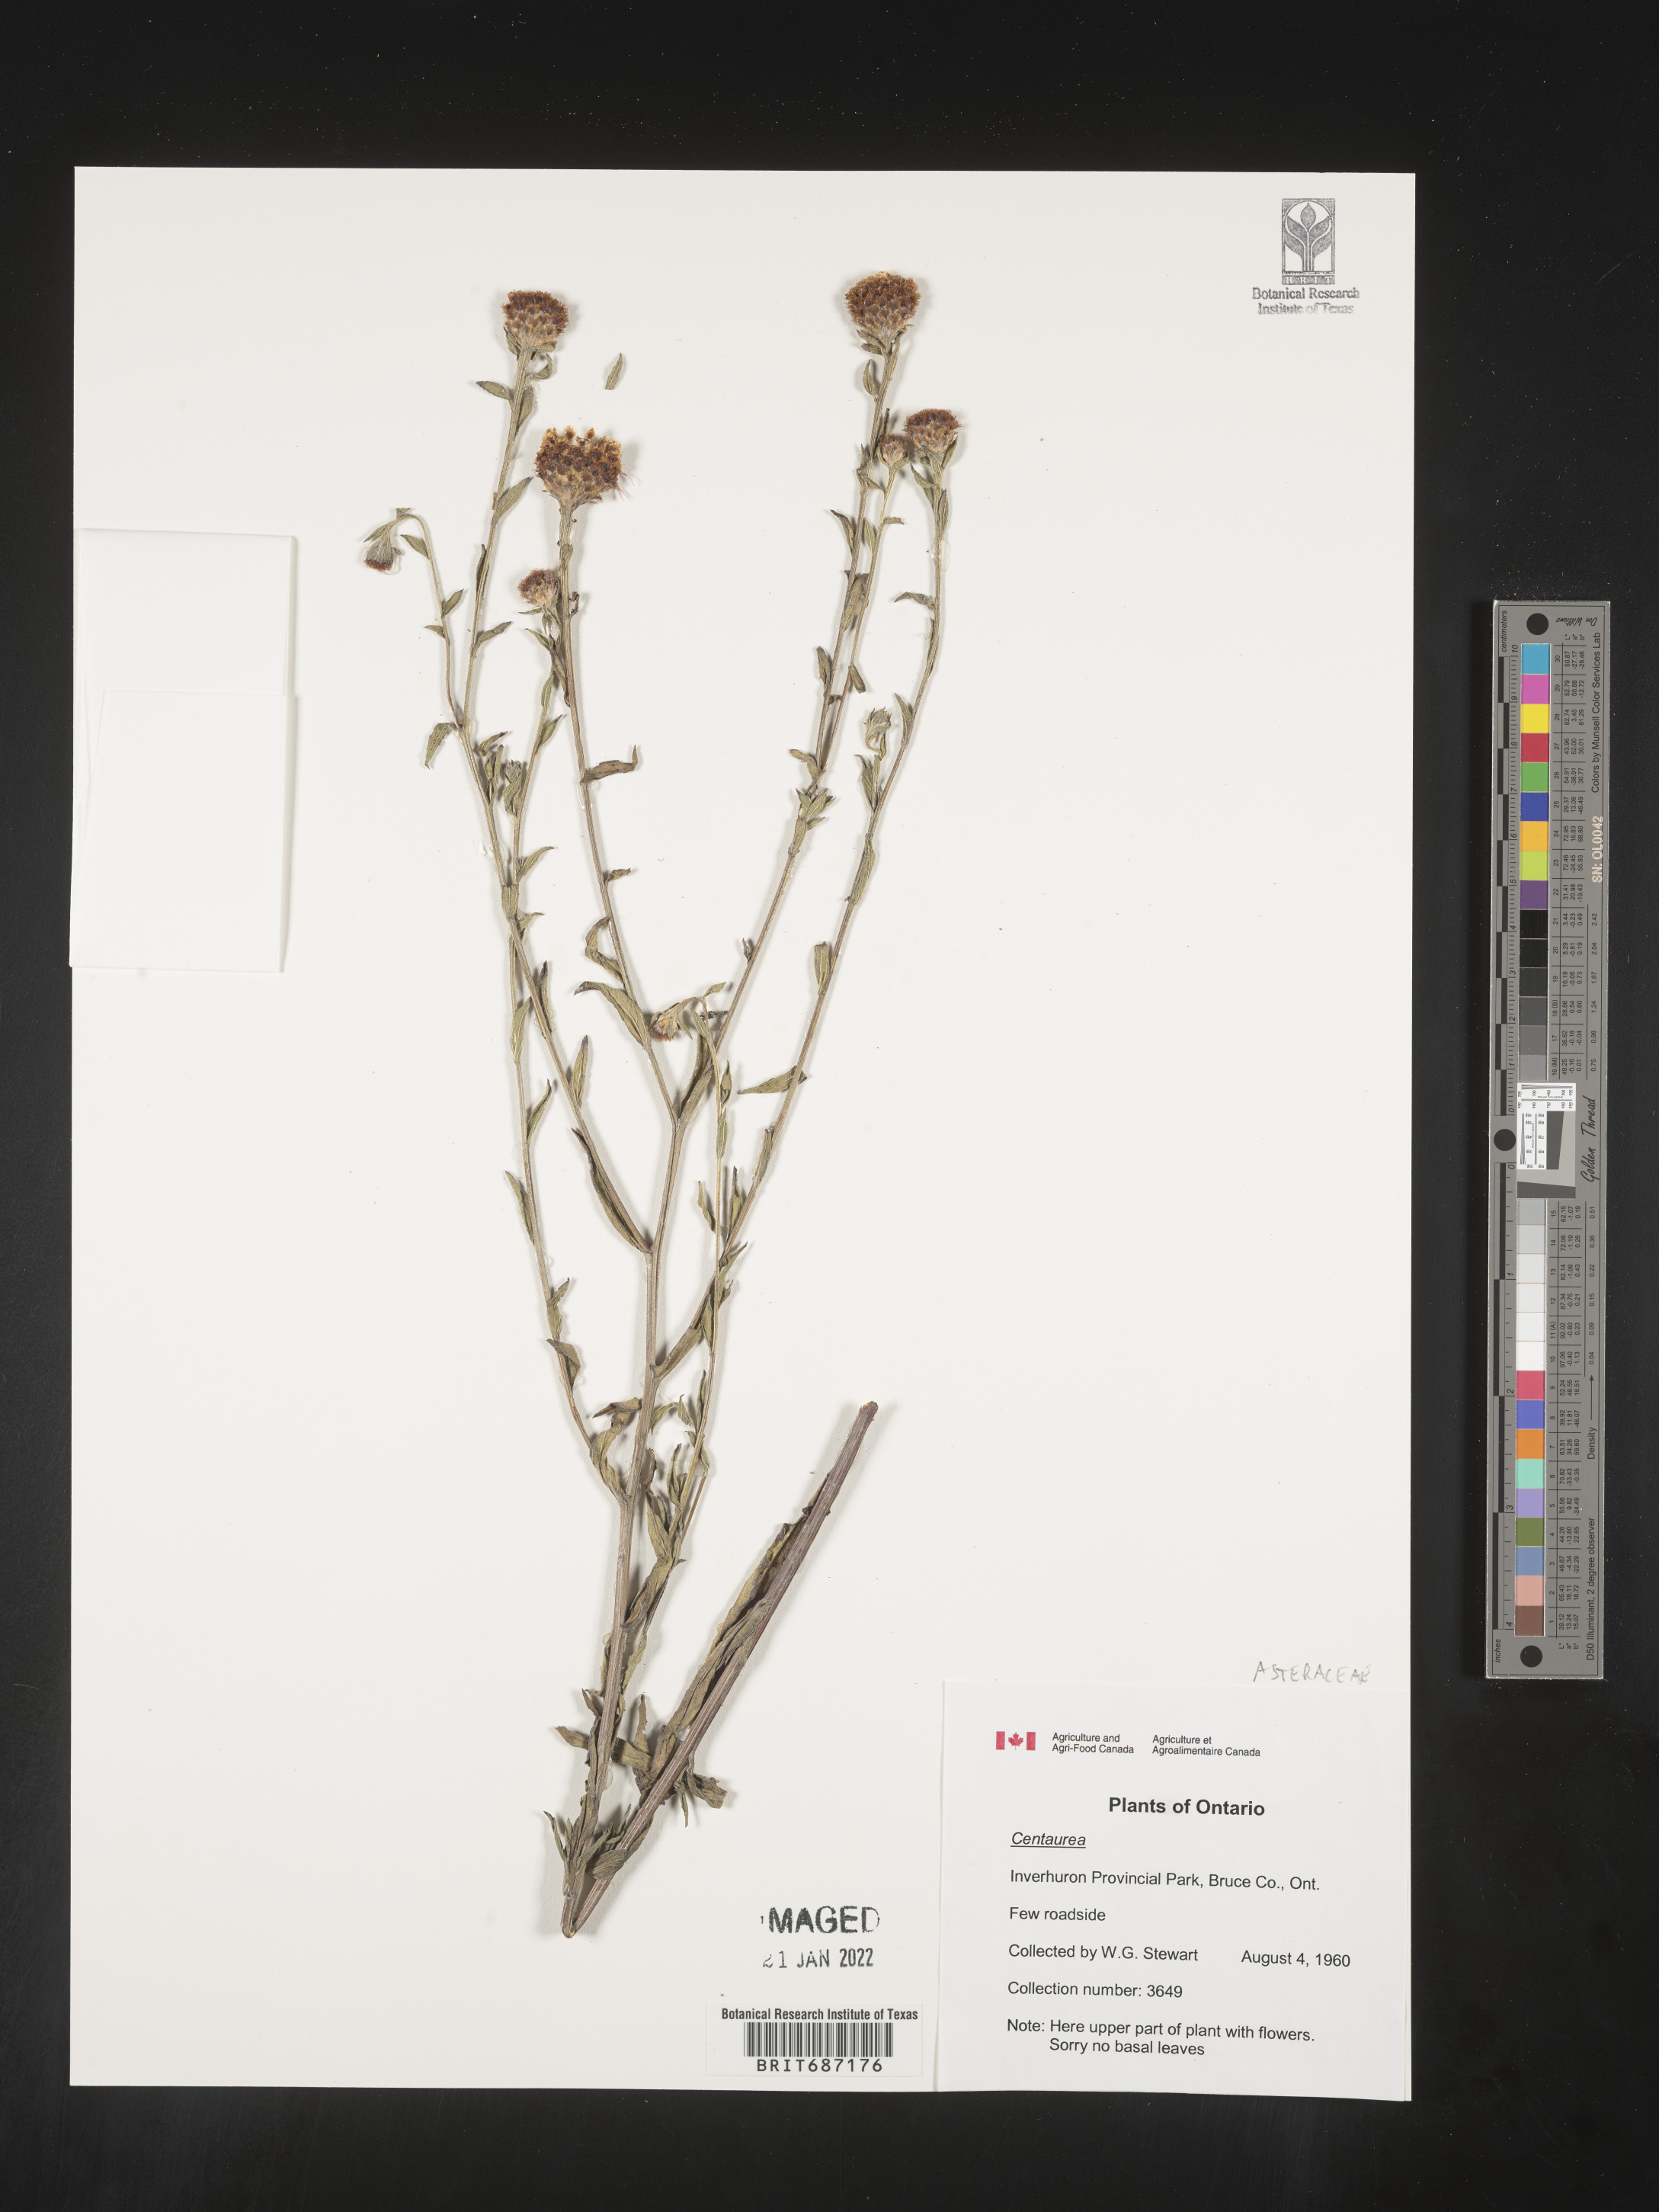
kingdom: Plantae
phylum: Tracheophyta
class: Magnoliopsida
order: Asterales
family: Asteraceae
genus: Centaurea
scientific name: Centaurea
